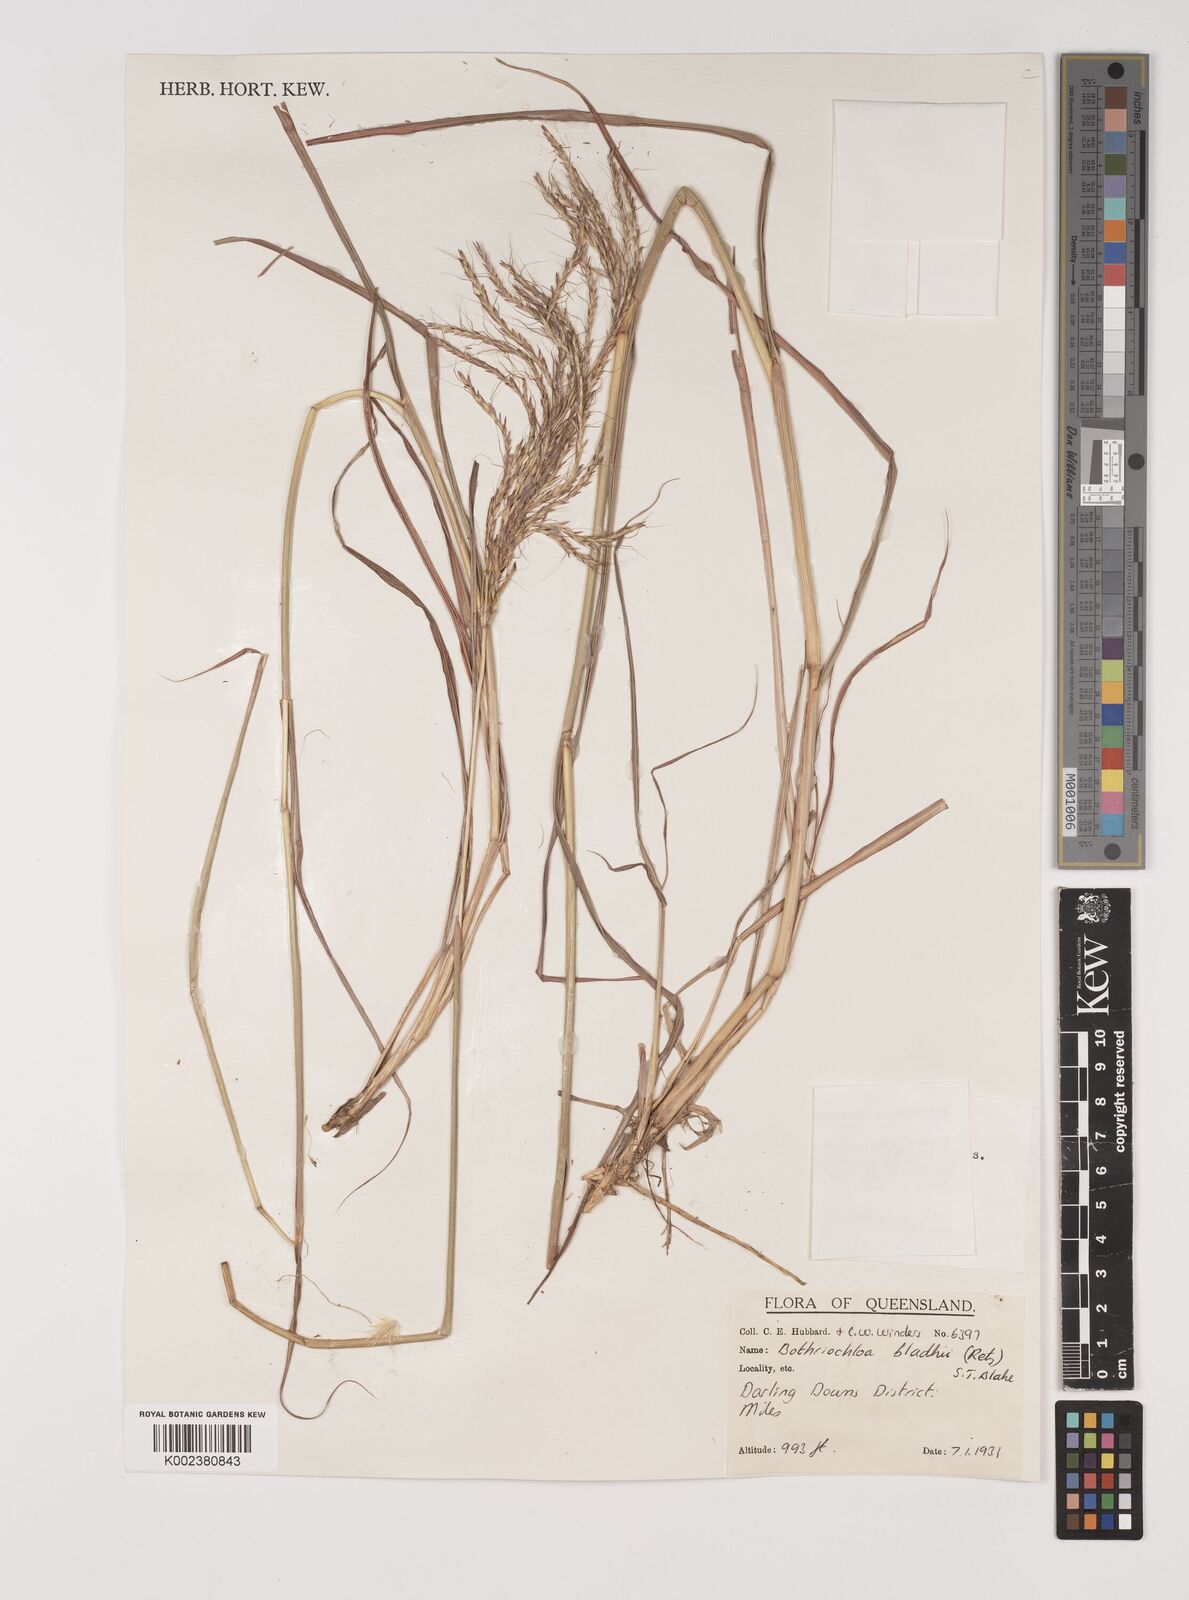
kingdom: Plantae
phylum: Tracheophyta
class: Liliopsida
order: Poales
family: Poaceae
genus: Bothriochloa
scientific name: Bothriochloa bladhii
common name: Caucasian bluestem
